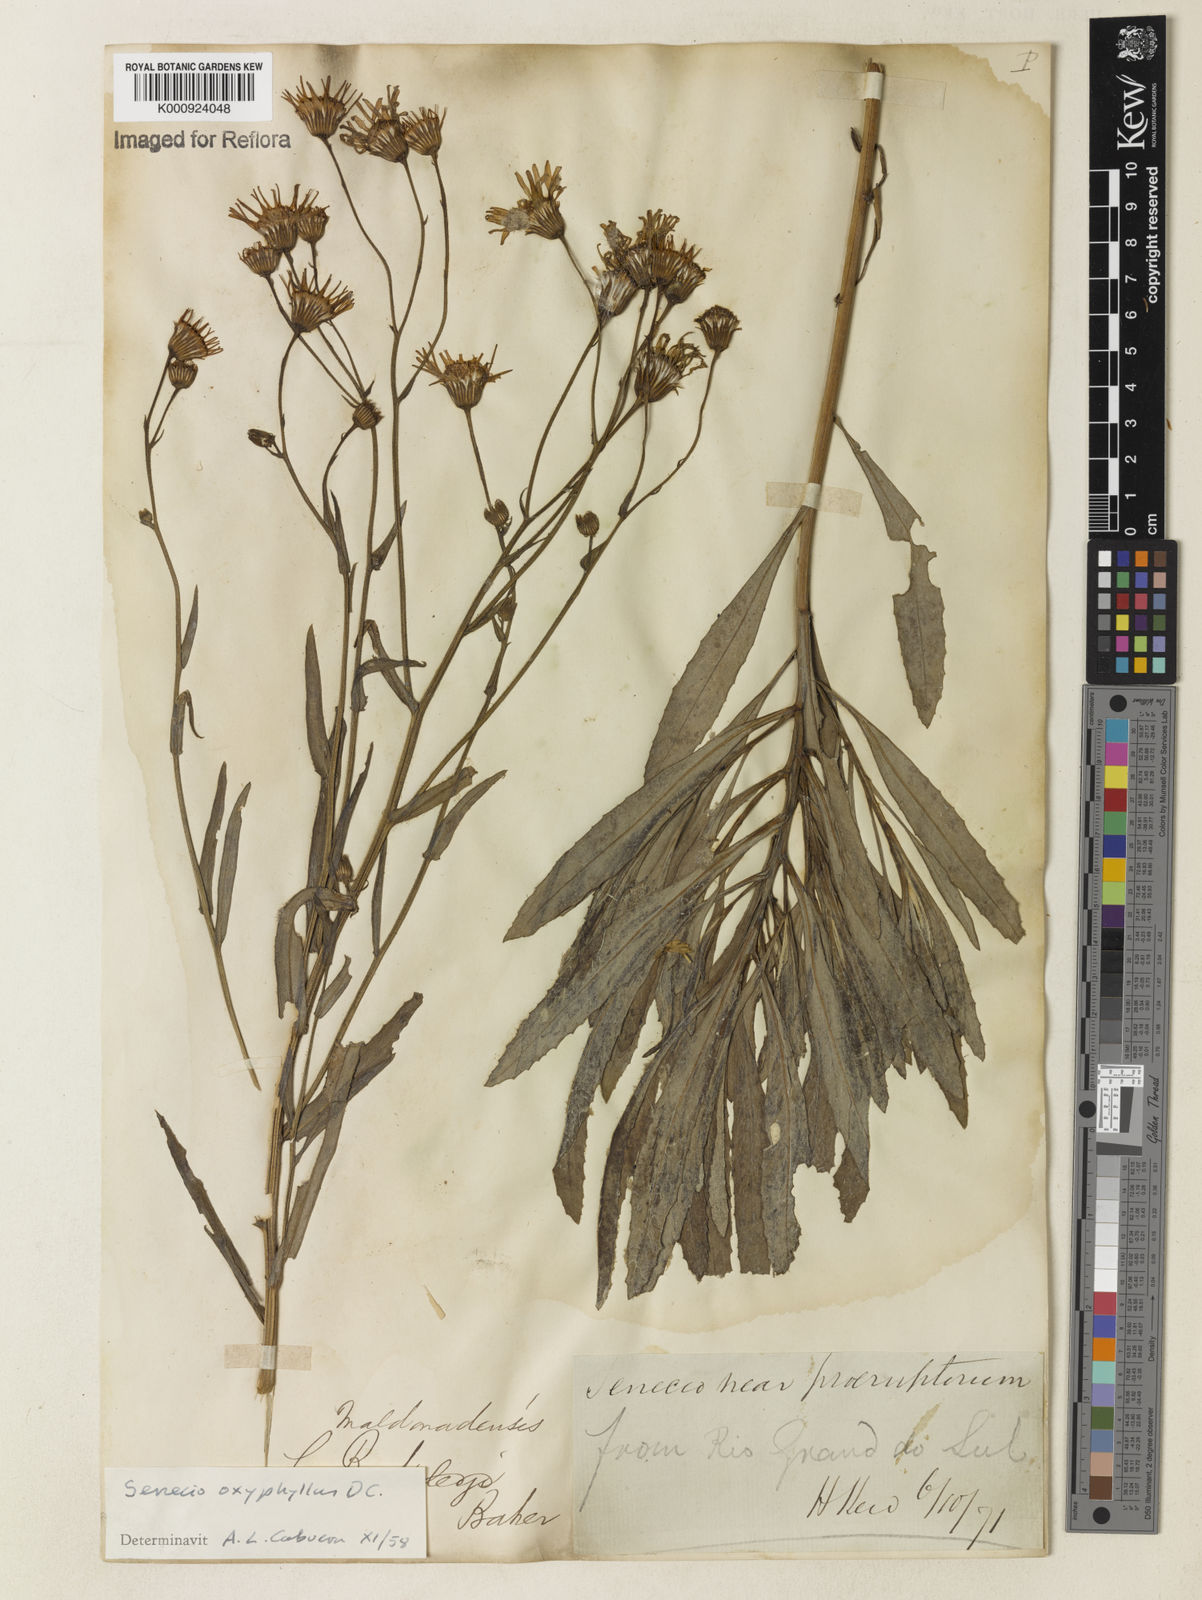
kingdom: Plantae
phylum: Tracheophyta
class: Magnoliopsida
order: Asterales
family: Asteraceae
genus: Senecio
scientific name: Senecio oxyphyllus
